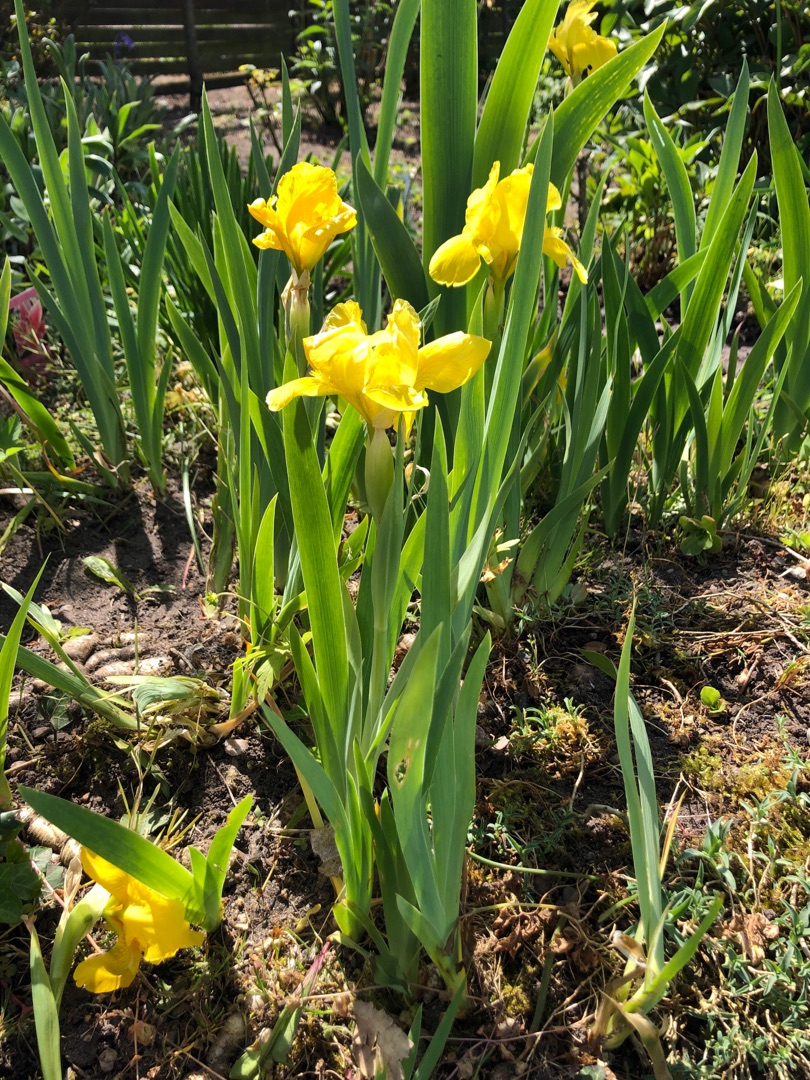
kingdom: Plantae
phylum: Tracheophyta
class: Liliopsida
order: Asparagales
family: Iridaceae
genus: Iris
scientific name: Iris pseudacorus
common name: Gul iris
